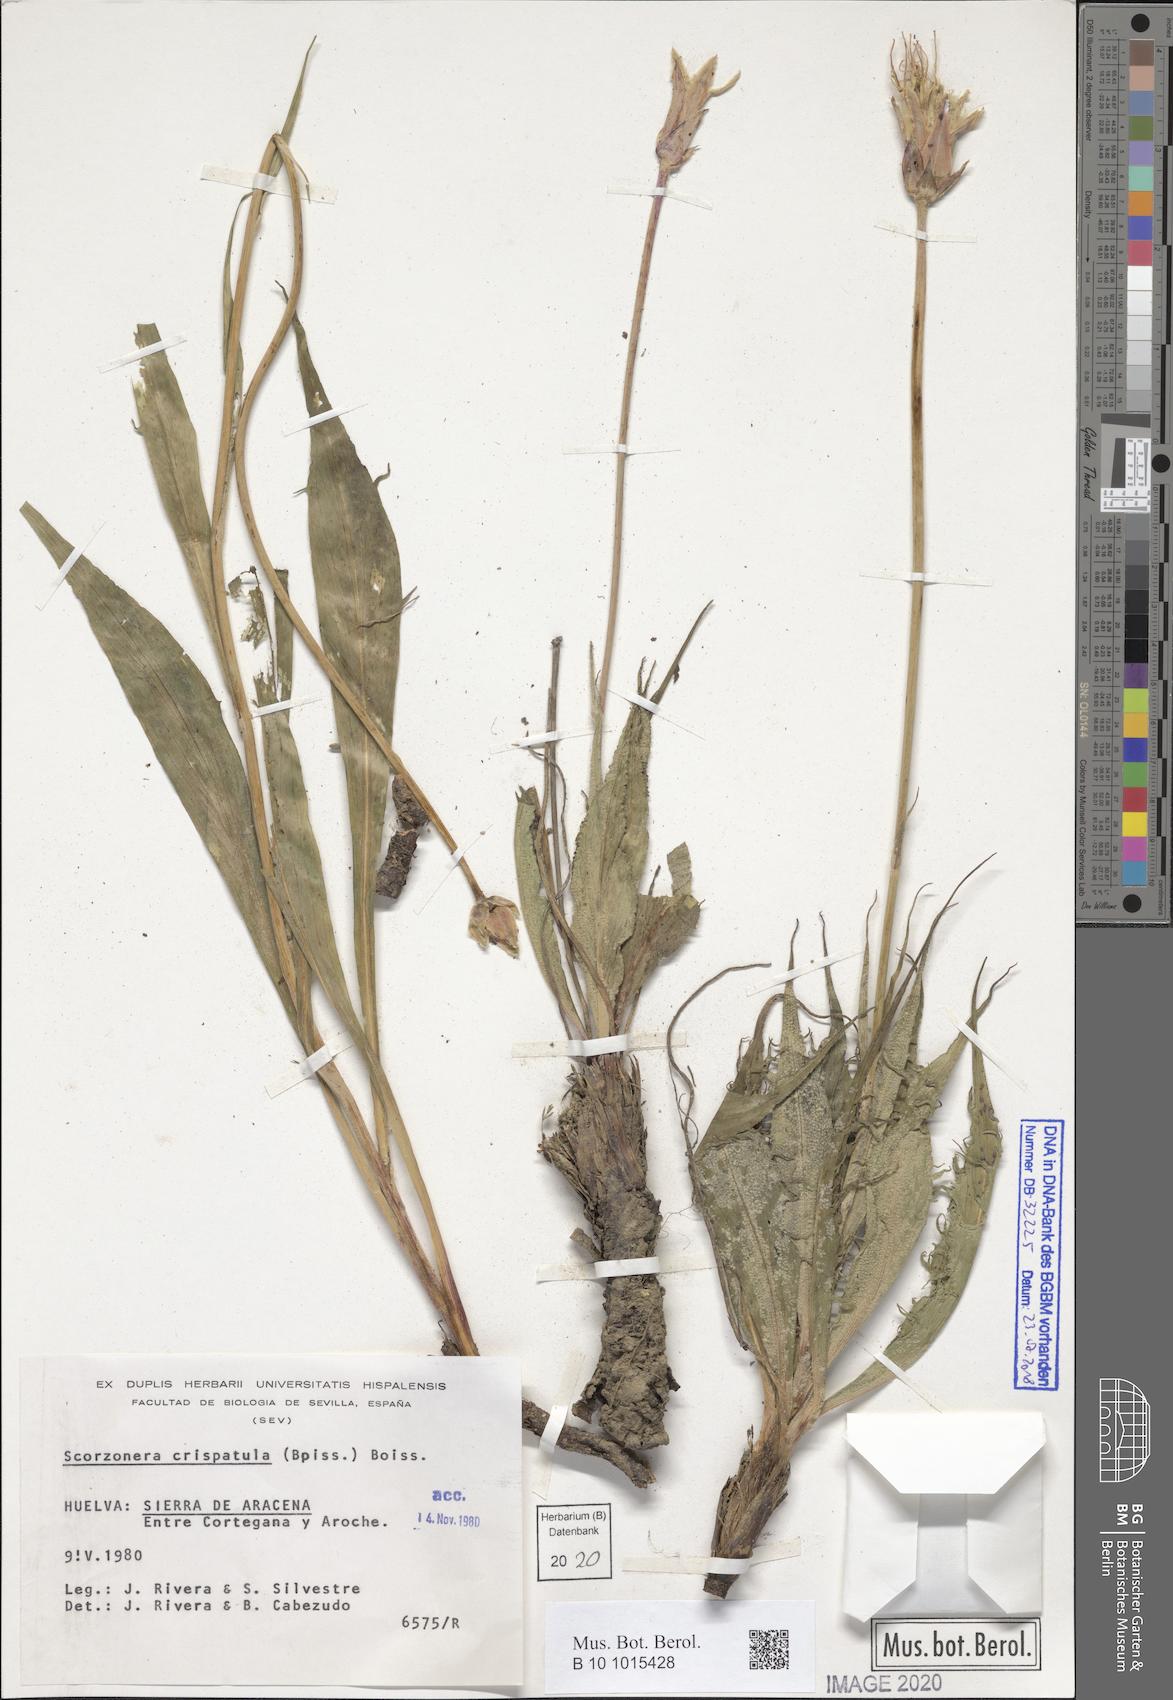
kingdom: Plantae
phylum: Tracheophyta
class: Magnoliopsida
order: Asterales
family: Asteraceae
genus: Pseudopodospermum
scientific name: Pseudopodospermum crispatulum
